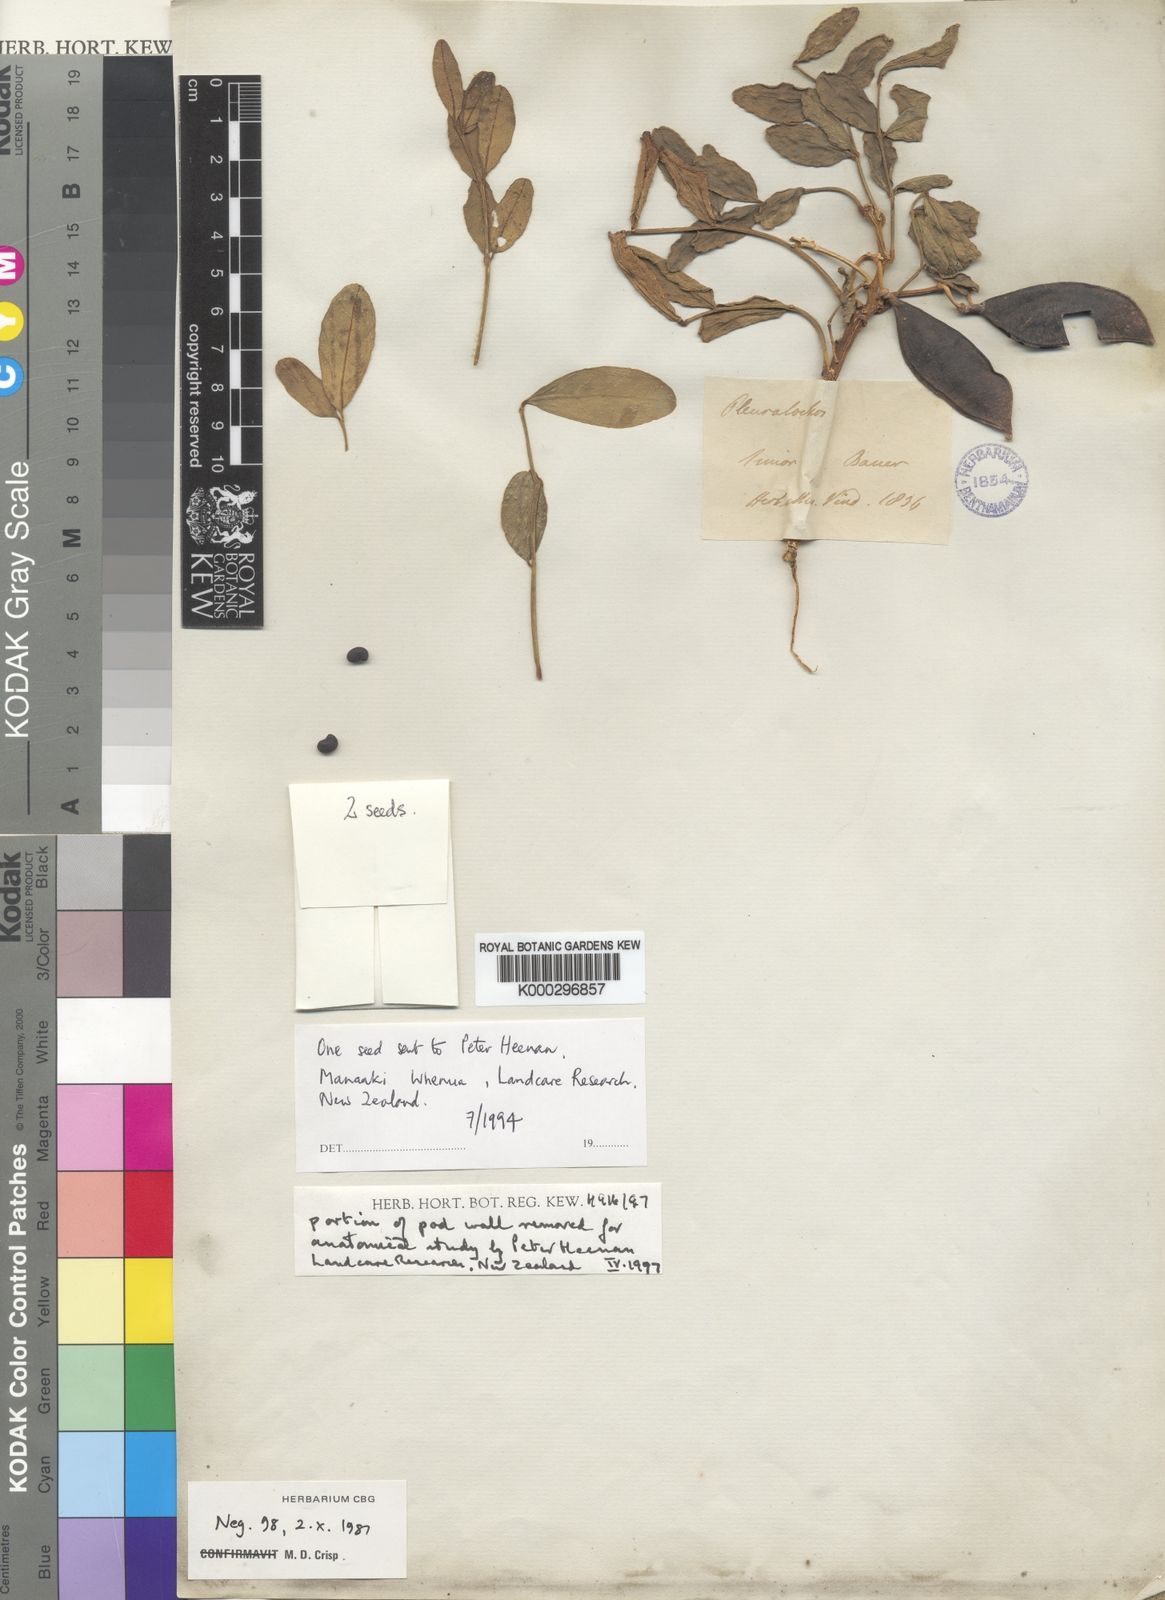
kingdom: Plantae
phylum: Tracheophyta
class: Magnoliopsida
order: Fabales
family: Fabaceae
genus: Streblorrhiza
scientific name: Streblorrhiza speciosa
